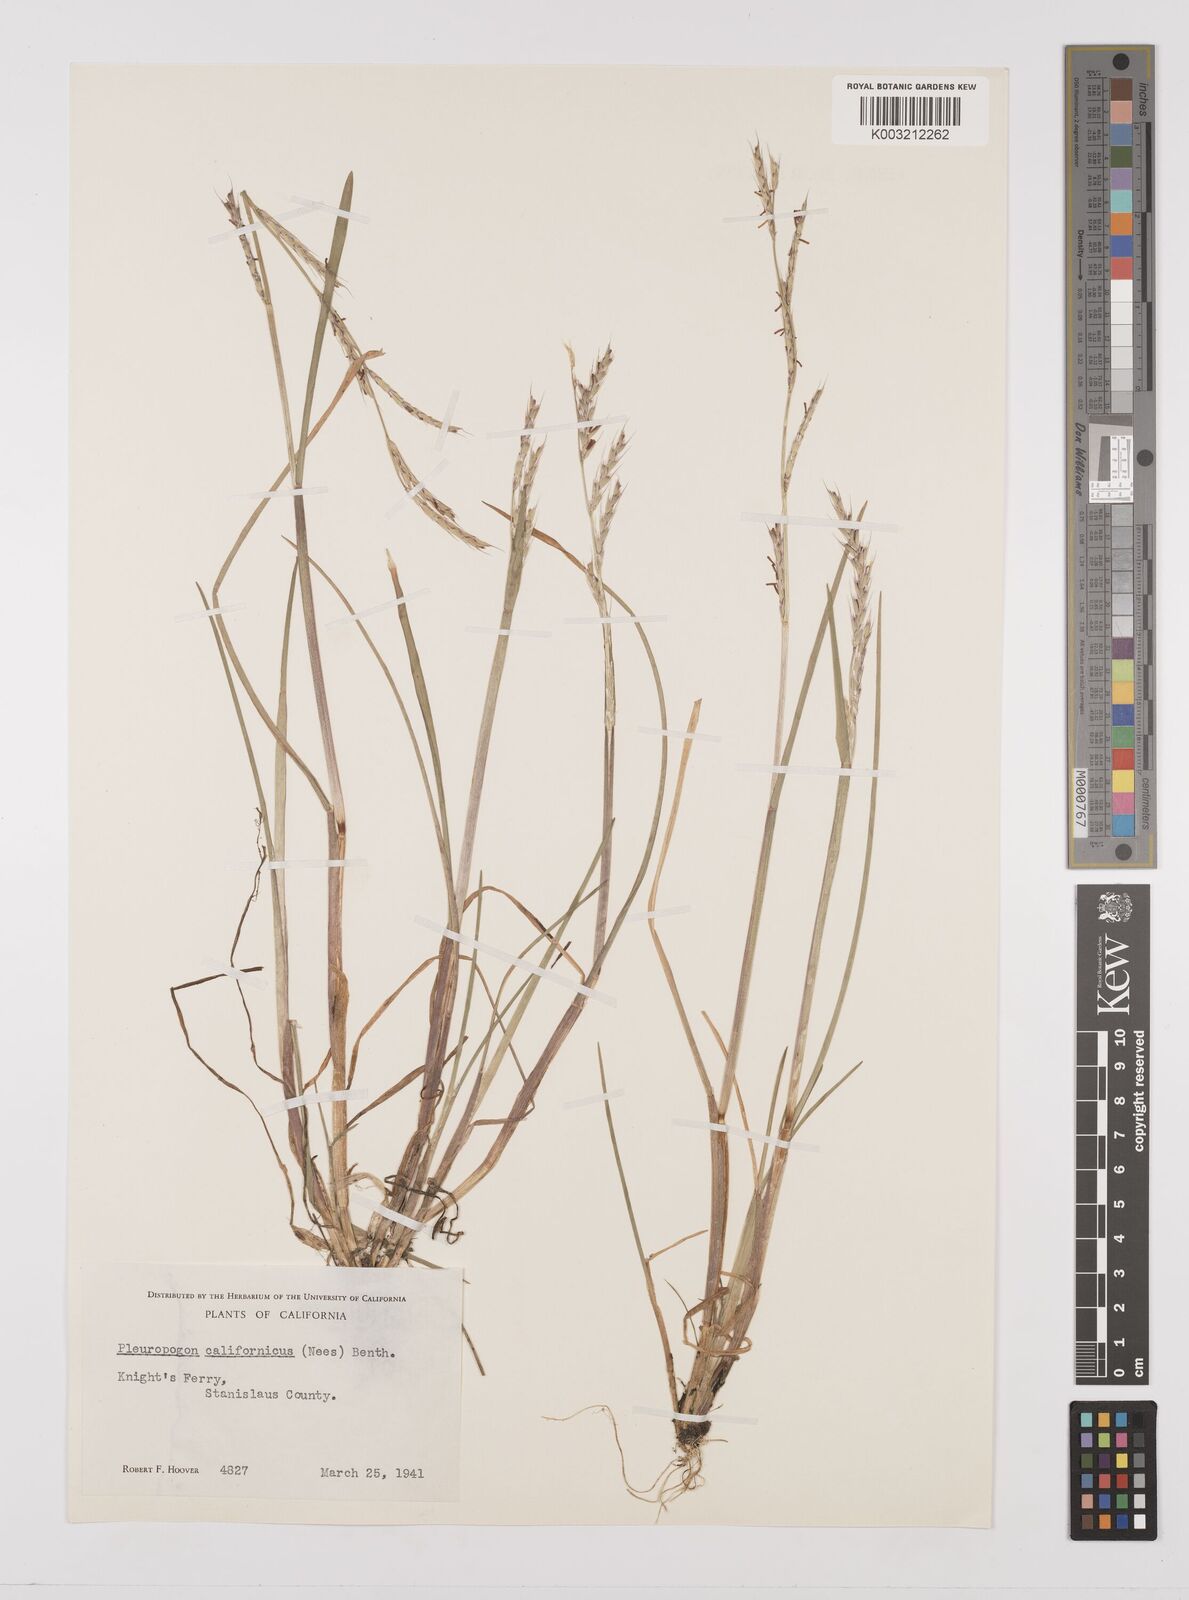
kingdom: Plantae
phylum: Tracheophyta
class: Liliopsida
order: Poales
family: Poaceae
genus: Pleuropogon
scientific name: Pleuropogon californicus
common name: California semaphore grass
